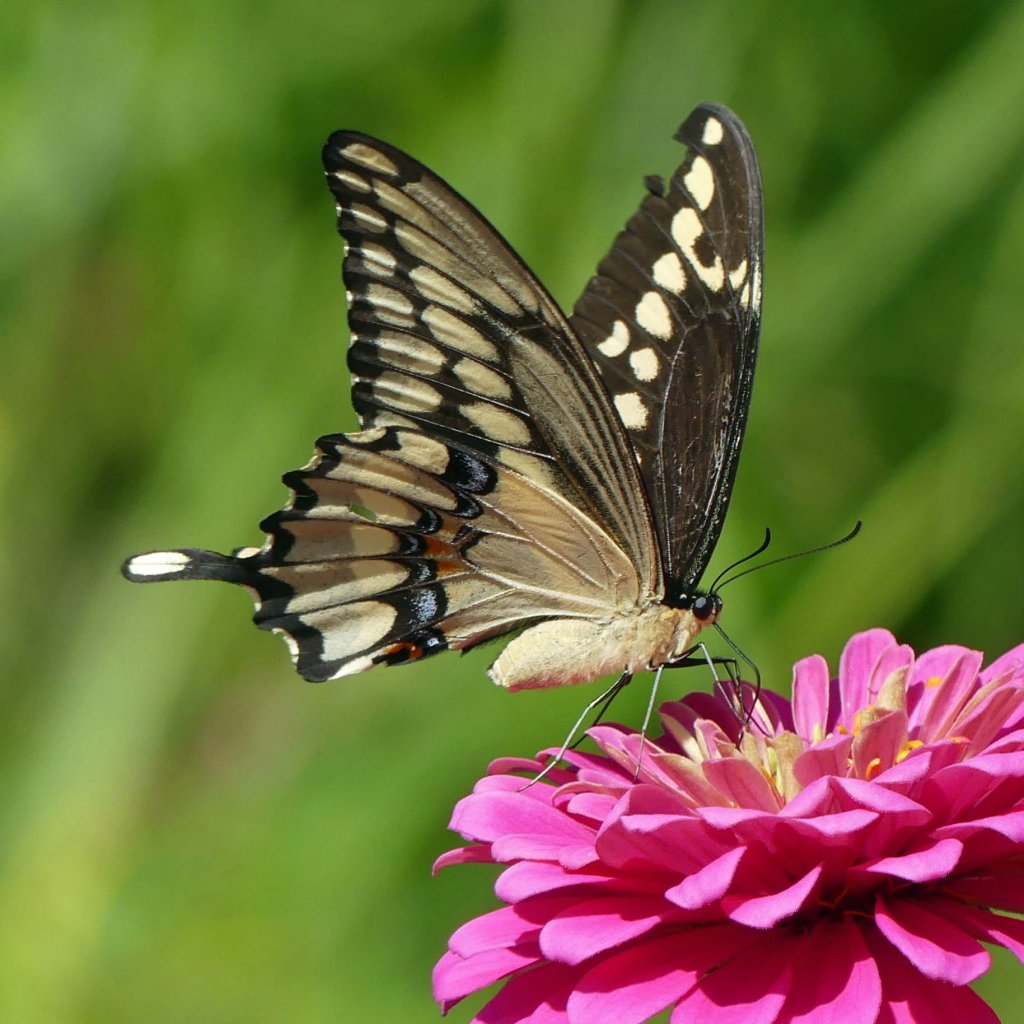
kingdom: Animalia
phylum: Arthropoda
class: Insecta
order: Lepidoptera
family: Papilionidae
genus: Papilio
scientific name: Papilio cresphontes
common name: Eastern Giant Swallowtail
